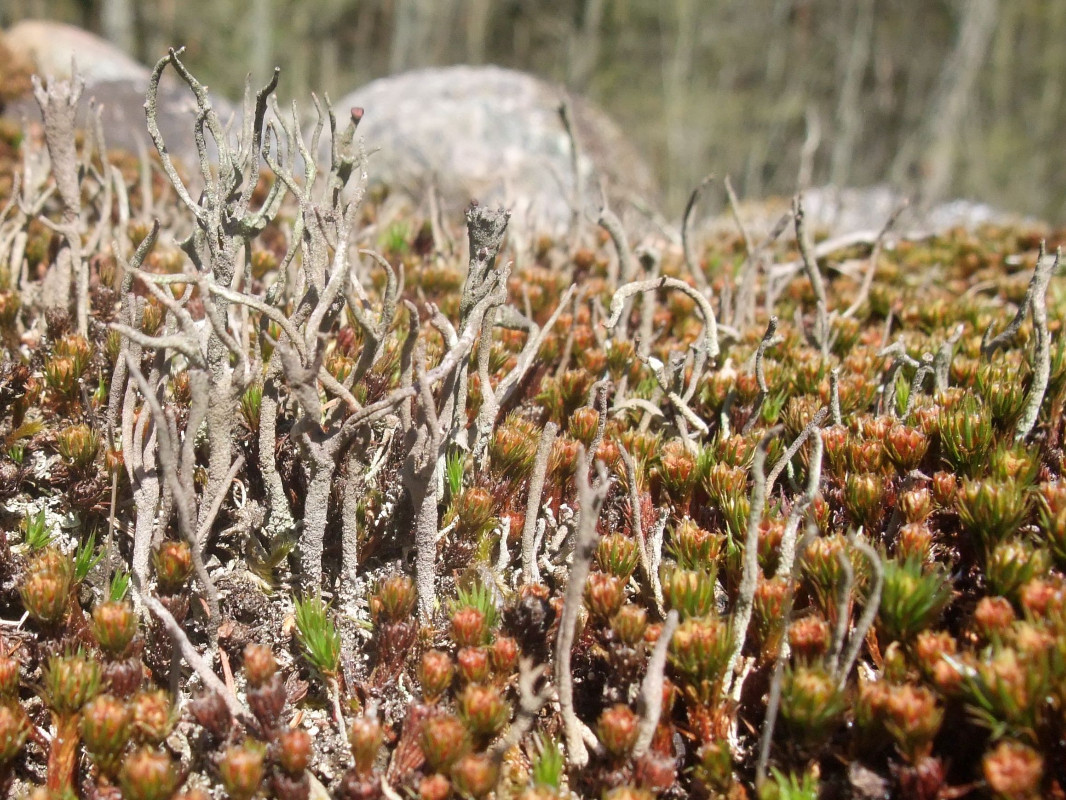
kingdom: Fungi
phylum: Ascomycota
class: Lecanoromycetes
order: Lecanorales
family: Cladoniaceae
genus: Cladonia
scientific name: Cladonia subulata
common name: spids bægerlav
